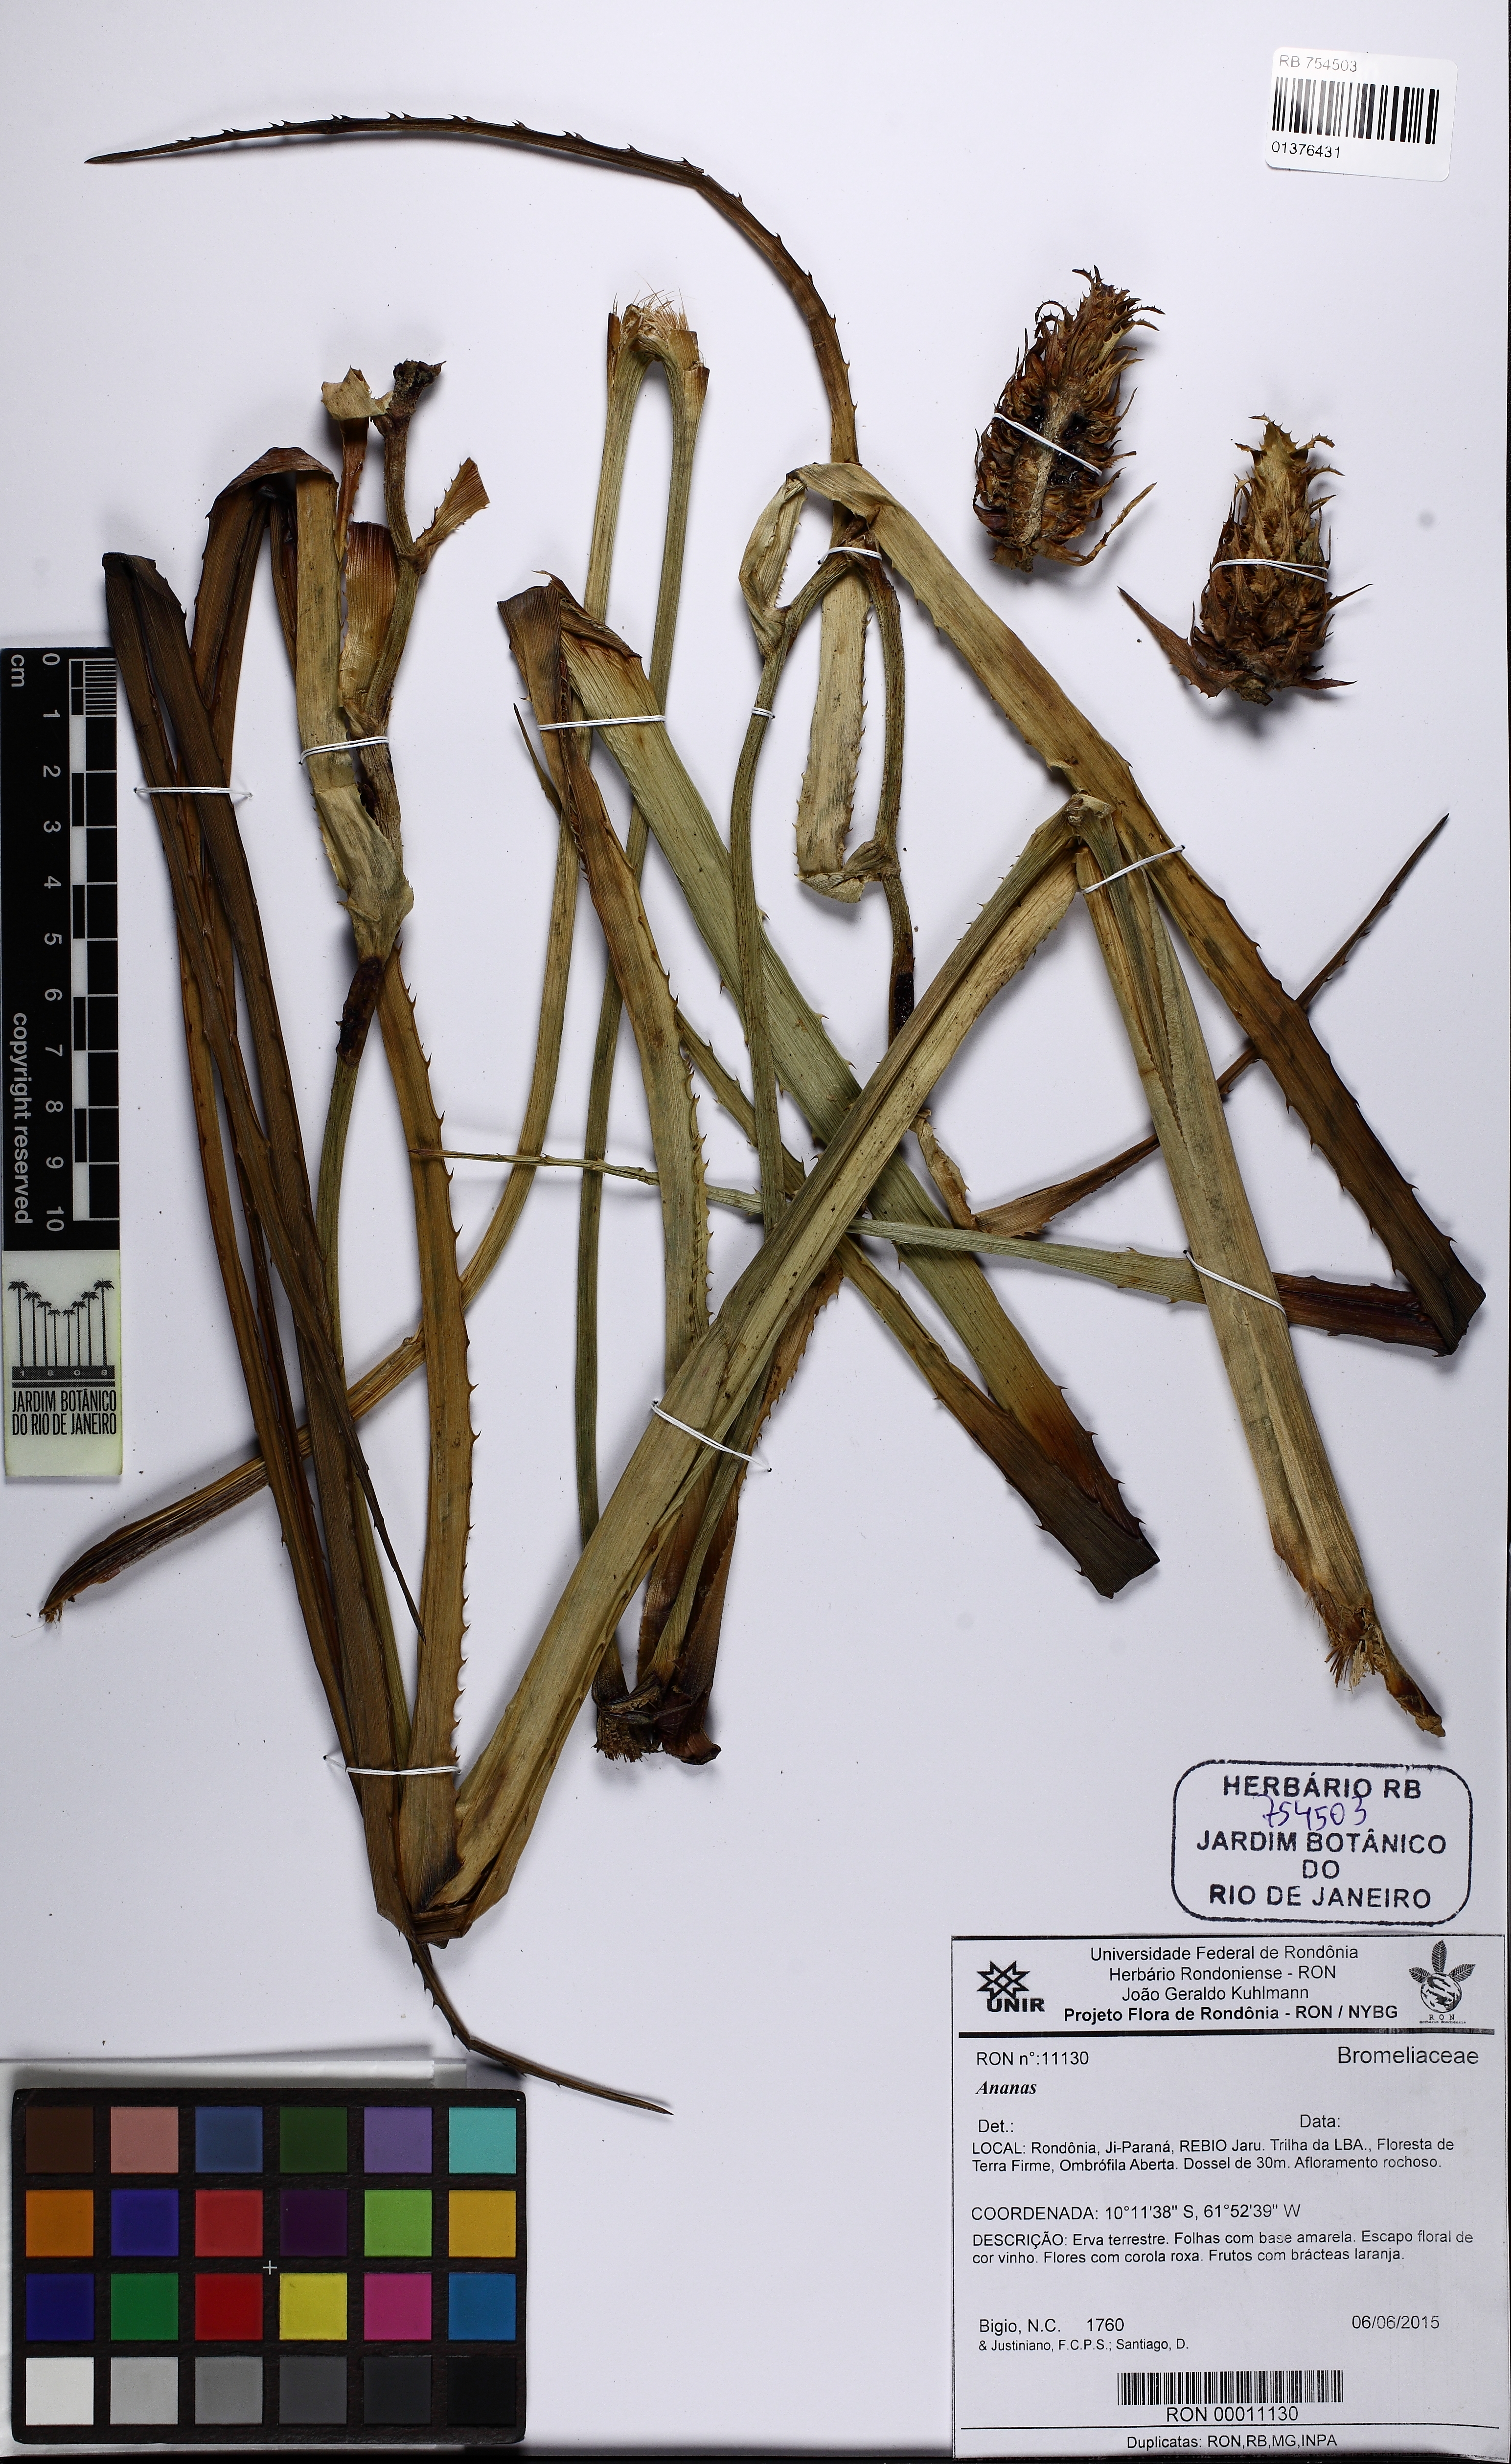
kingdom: Plantae
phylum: Tracheophyta
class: Liliopsida
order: Poales
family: Bromeliaceae
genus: Ananas
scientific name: Ananas
